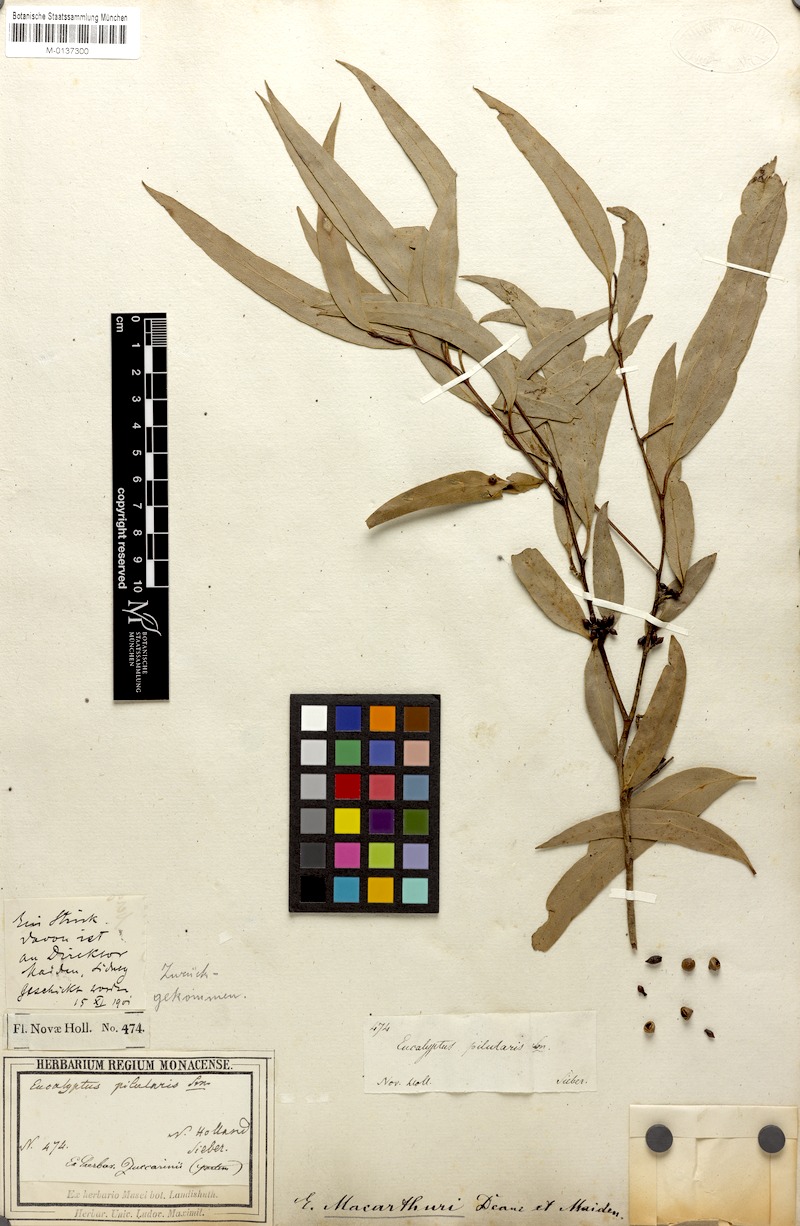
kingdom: Plantae
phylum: Tracheophyta
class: Magnoliopsida
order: Myrtales
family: Myrtaceae
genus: Eucalyptus
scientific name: Eucalyptus macarthurii
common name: Camden-woollybutt
